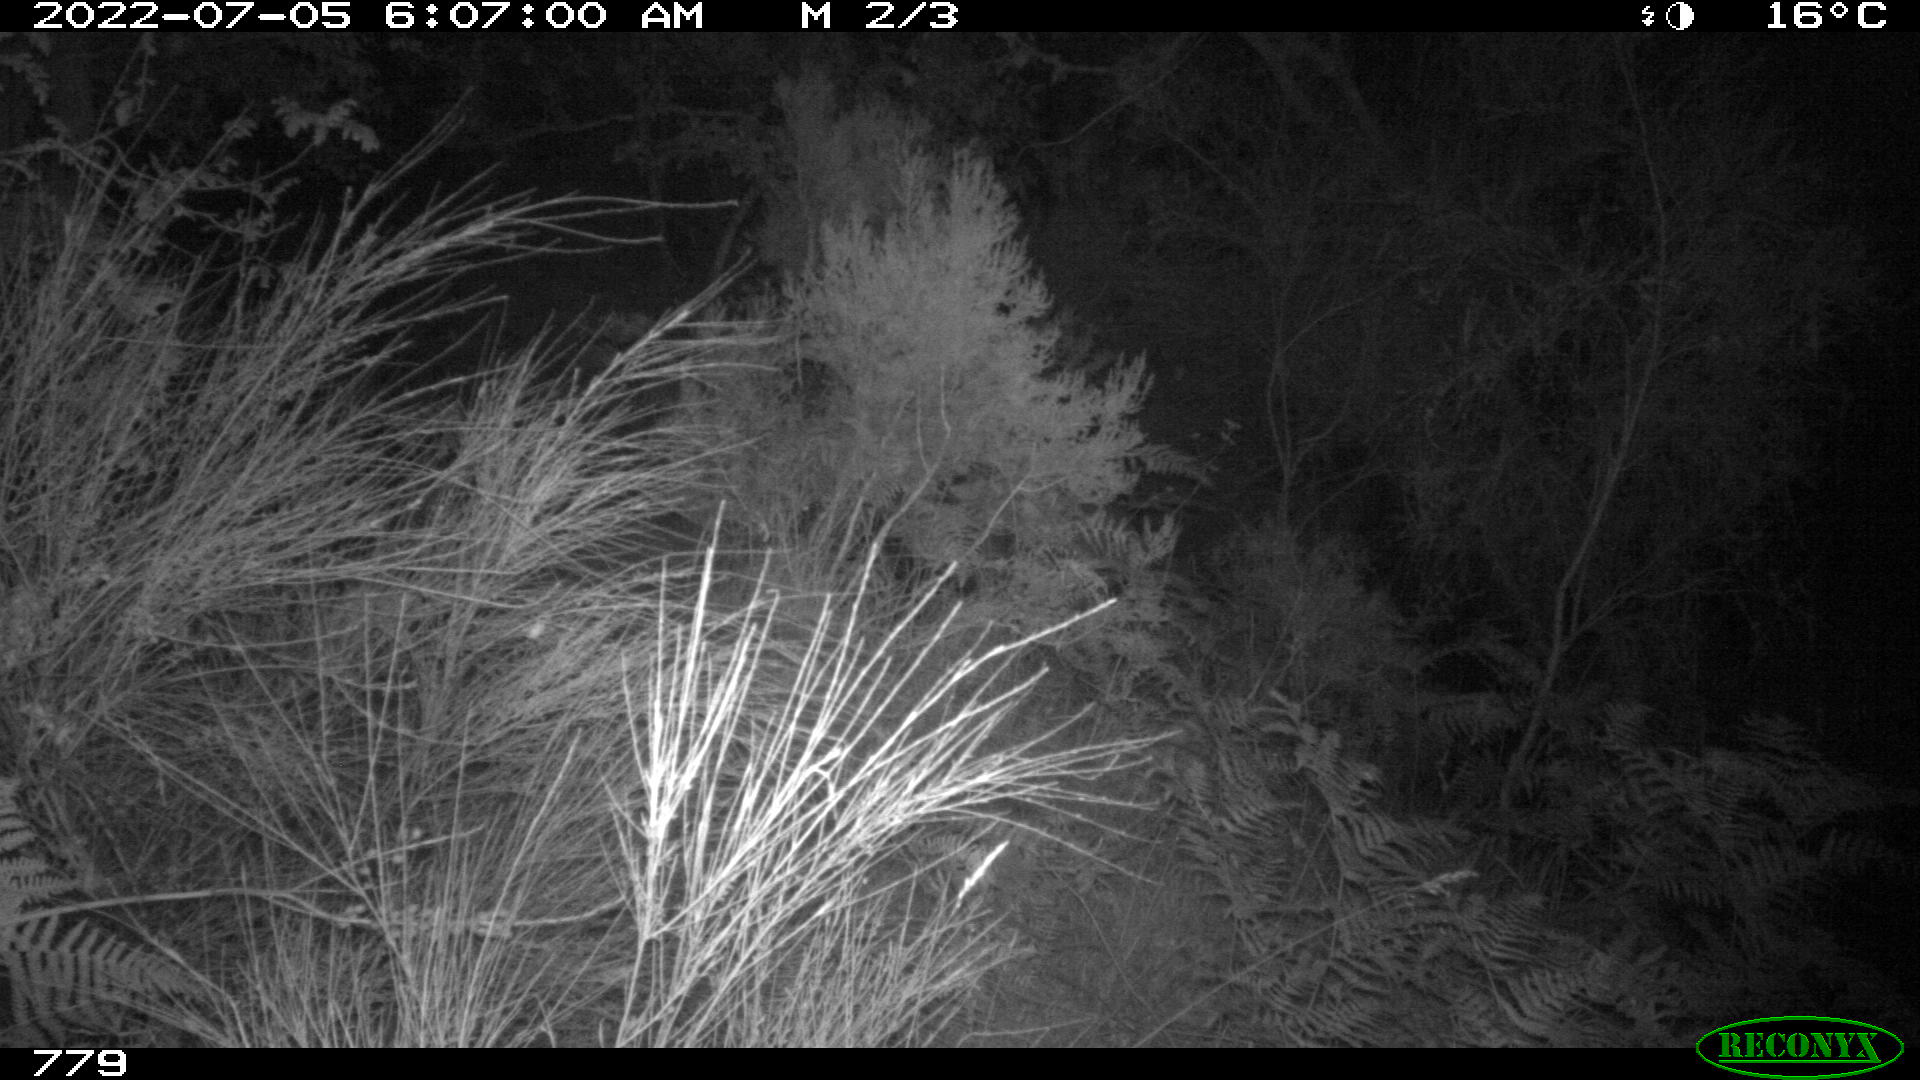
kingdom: Animalia
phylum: Chordata
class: Mammalia
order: Artiodactyla
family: Suidae
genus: Sus
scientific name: Sus scrofa
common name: Wild boar
